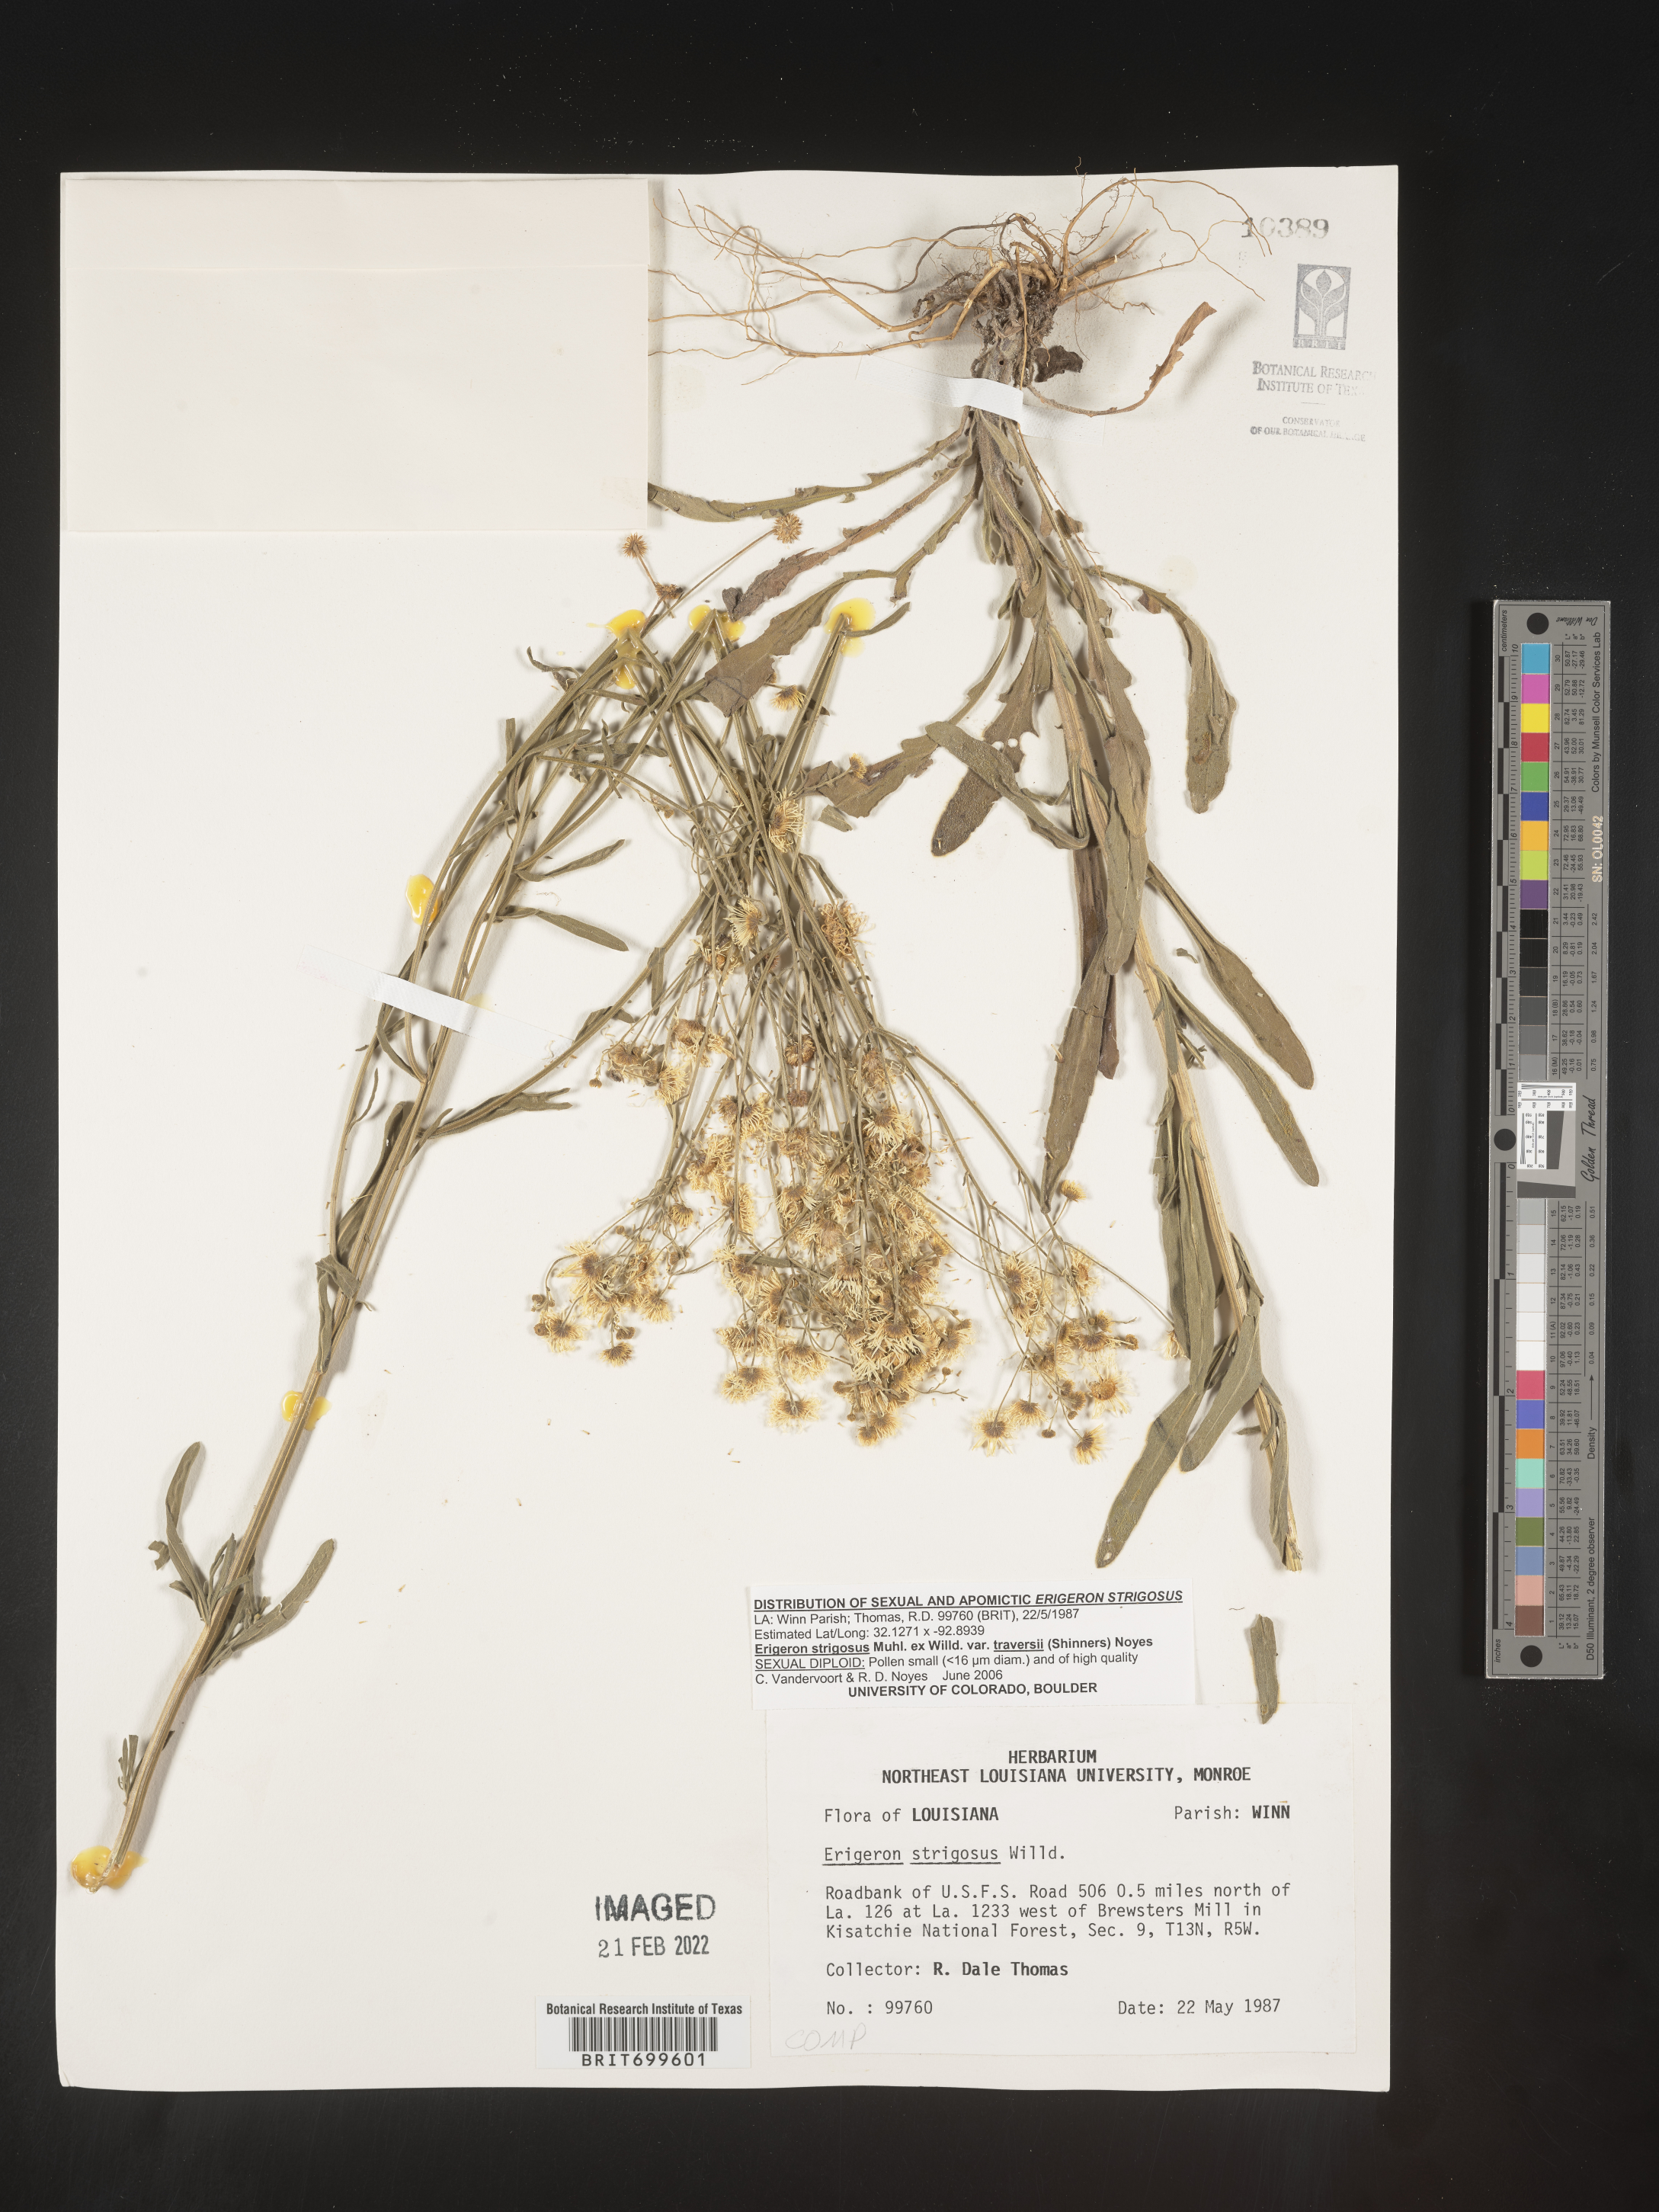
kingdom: Plantae
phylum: Tracheophyta
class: Magnoliopsida
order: Asterales
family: Asteraceae
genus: Erigeron
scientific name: Erigeron strigosus
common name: Common eastern fleabane
